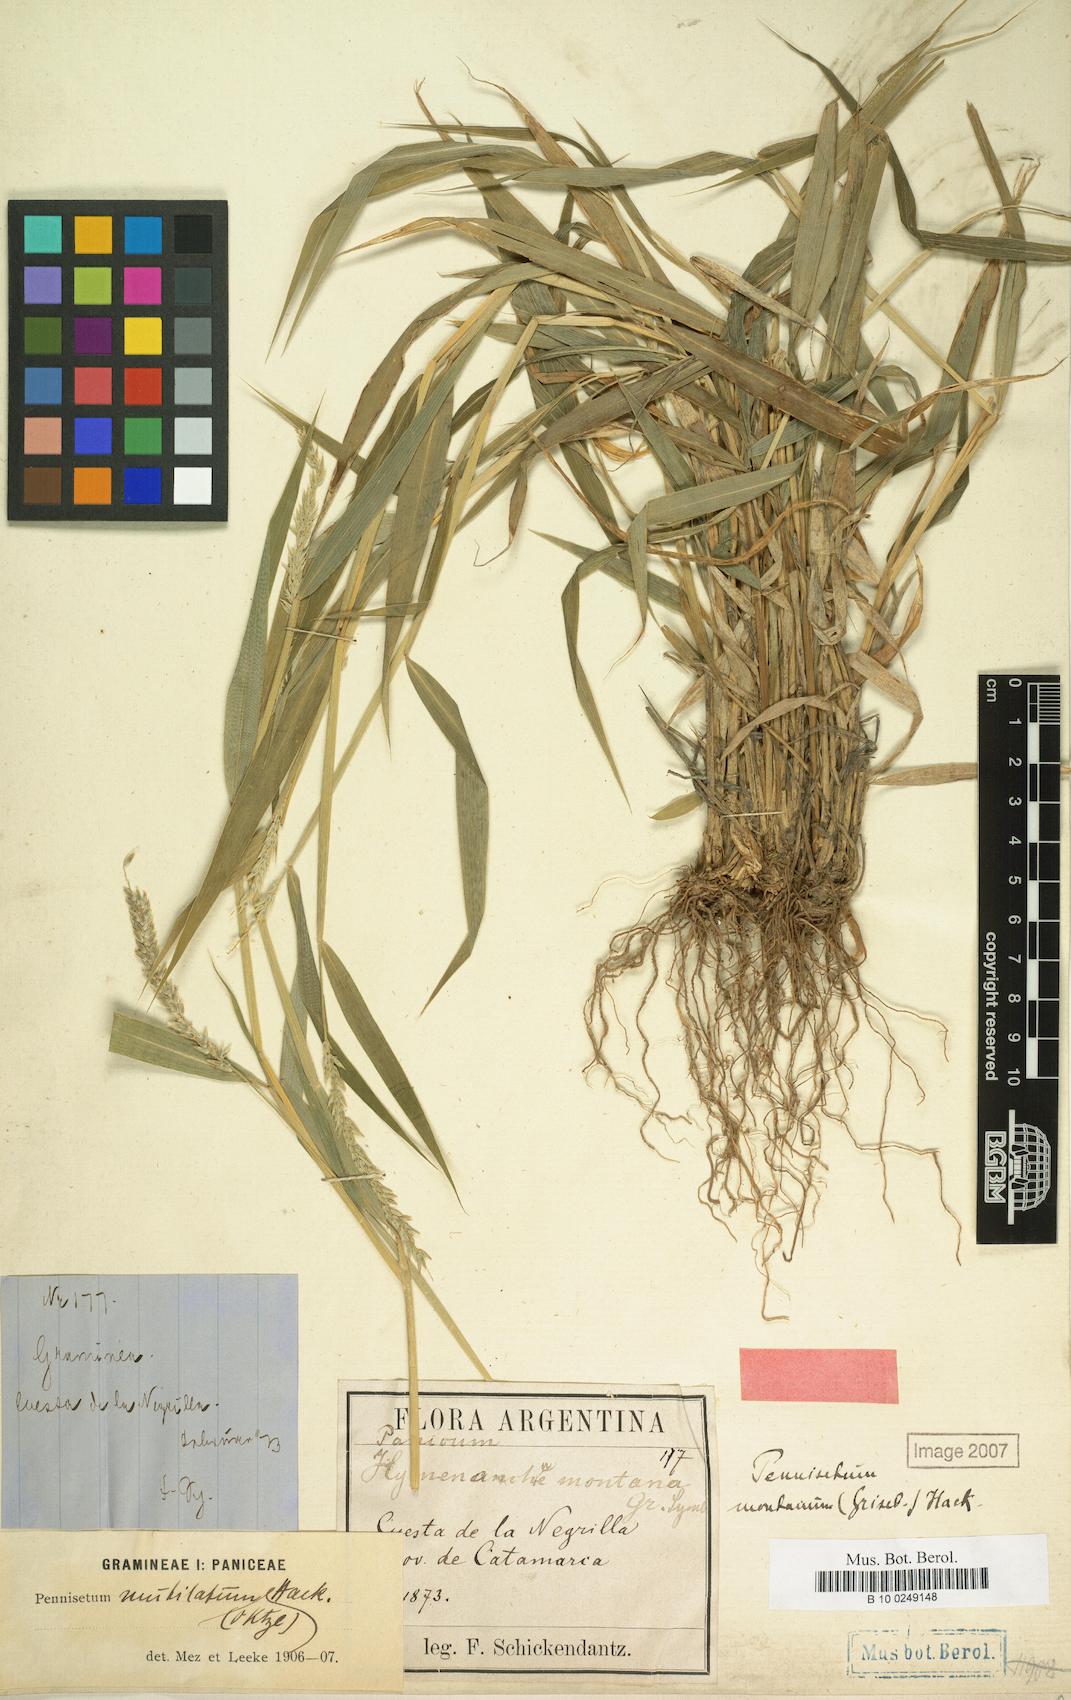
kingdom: Plantae
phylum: Tracheophyta
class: Liliopsida
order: Poales
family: Poaceae
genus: Cenchrus
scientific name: Cenchrus mutilatus
